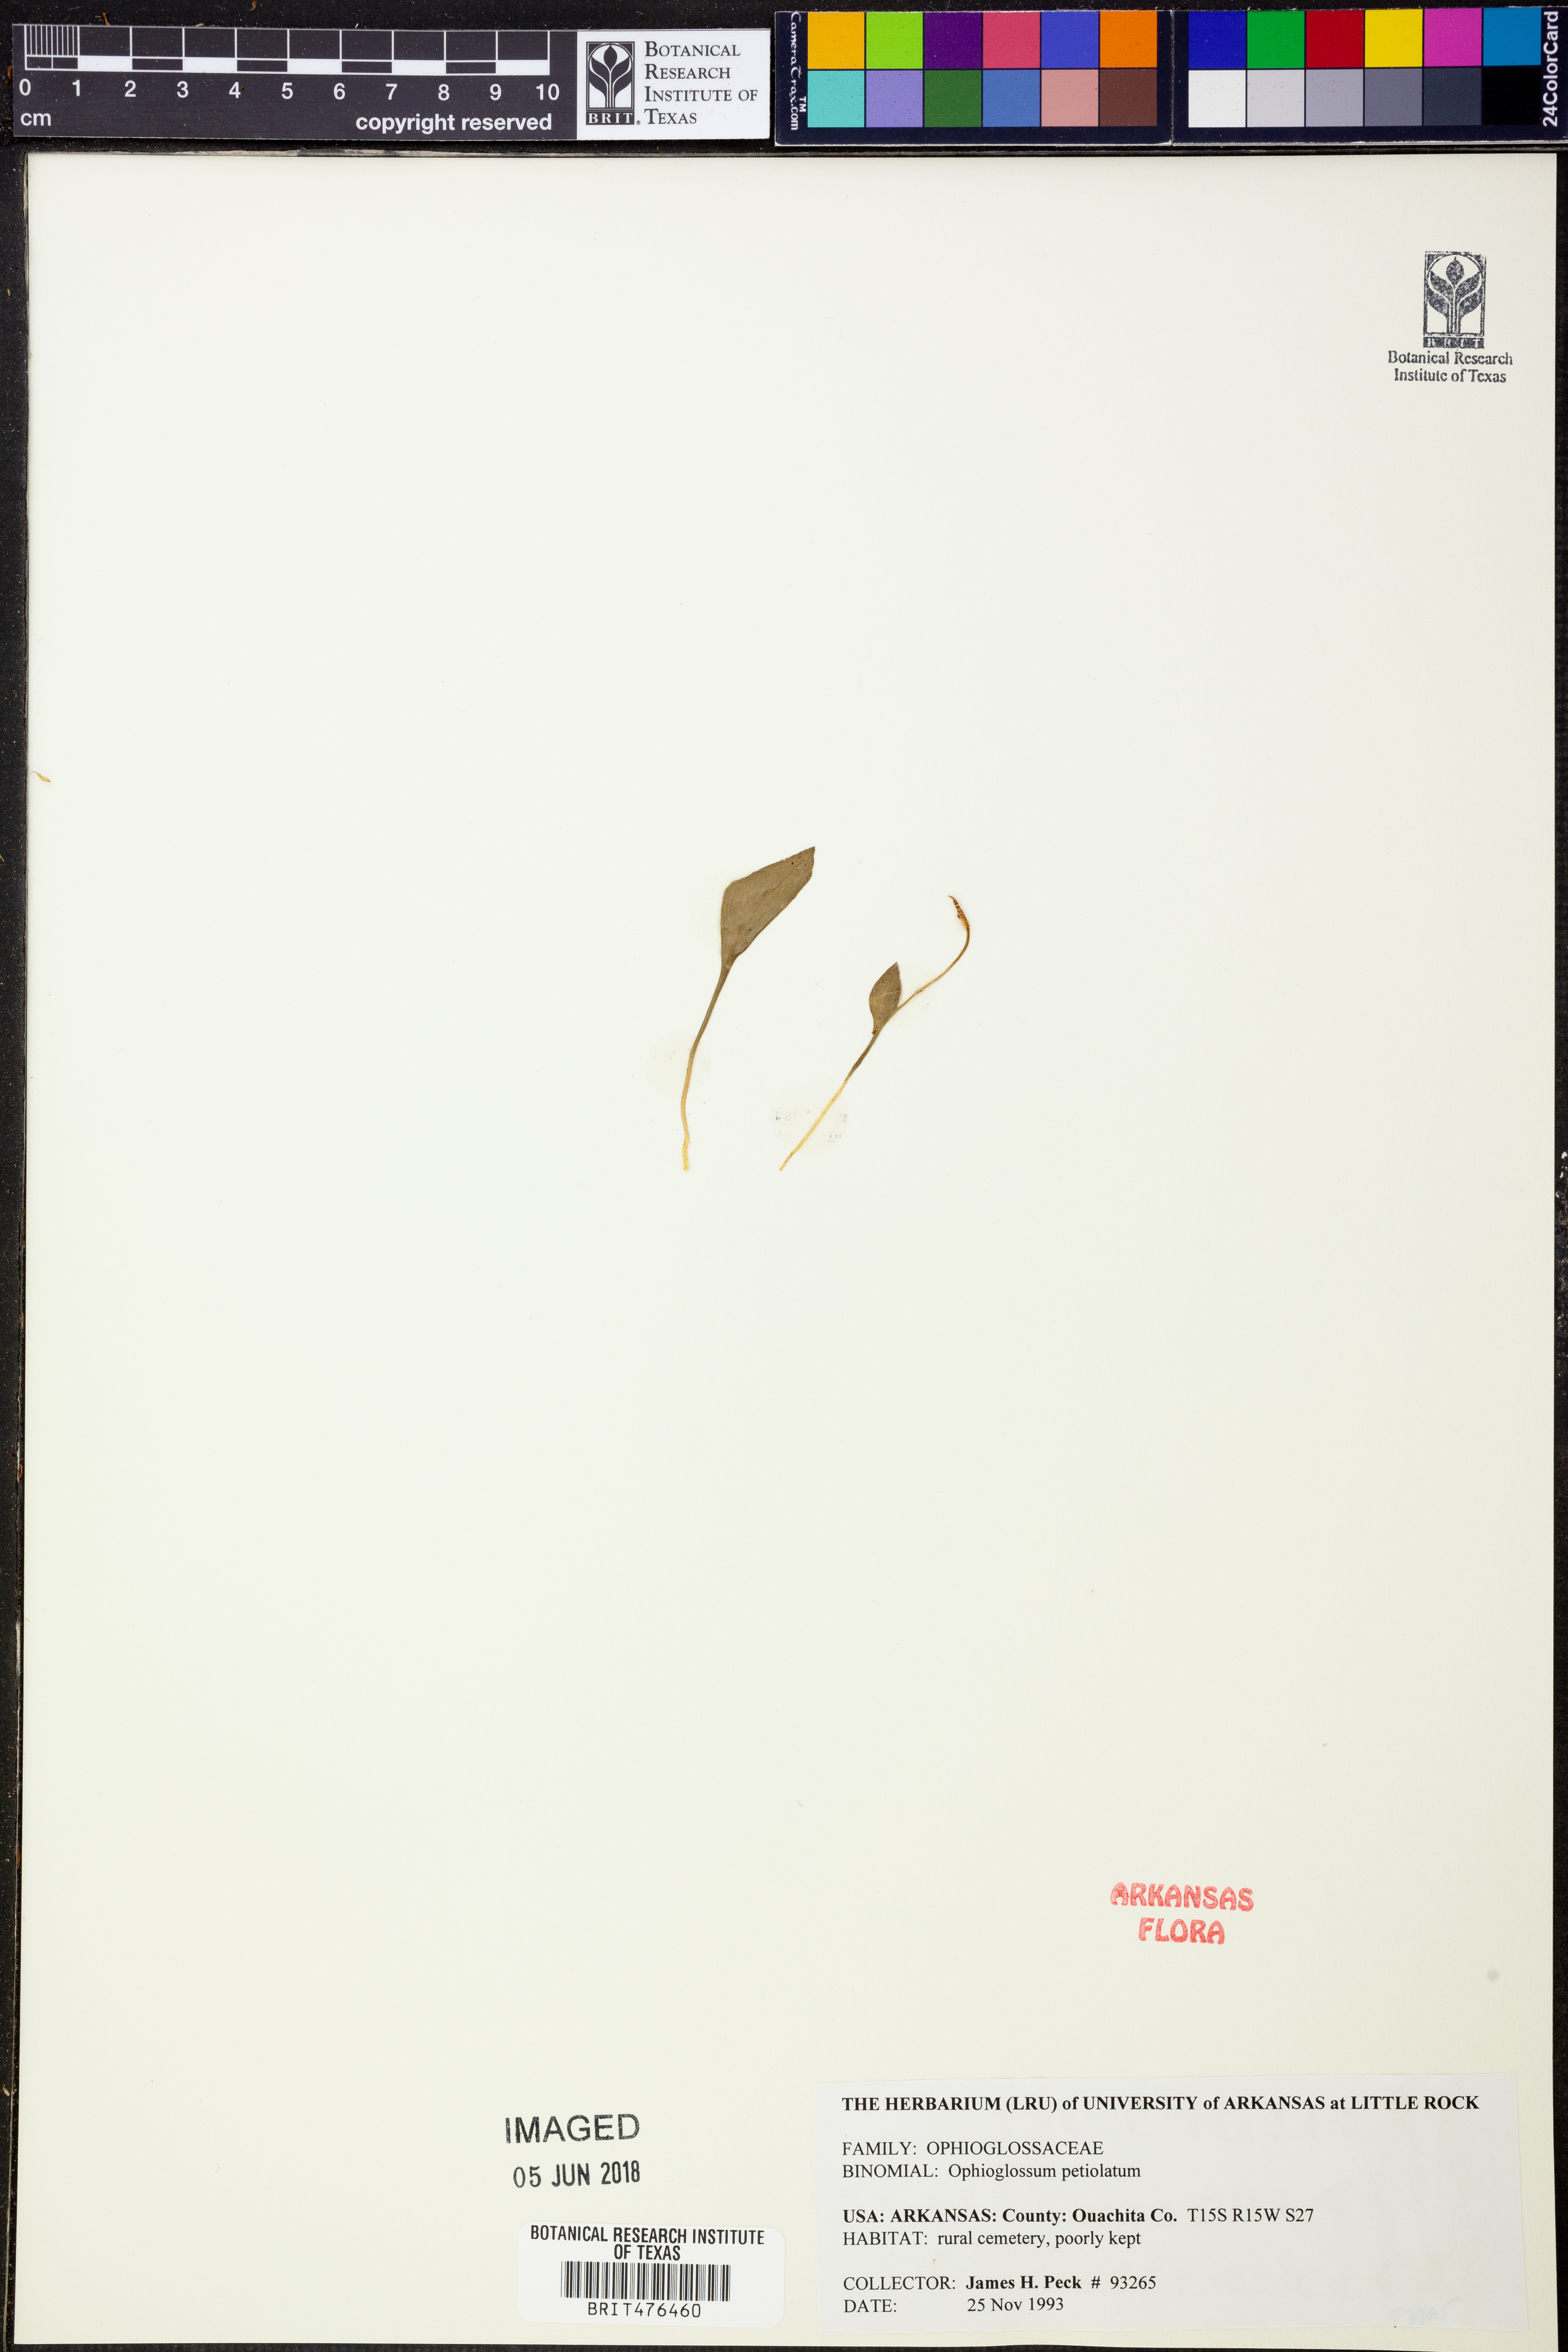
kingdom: Plantae
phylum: Tracheophyta
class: Polypodiopsida
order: Ophioglossales
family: Ophioglossaceae
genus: Ophioglossum
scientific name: Ophioglossum petiolatum
